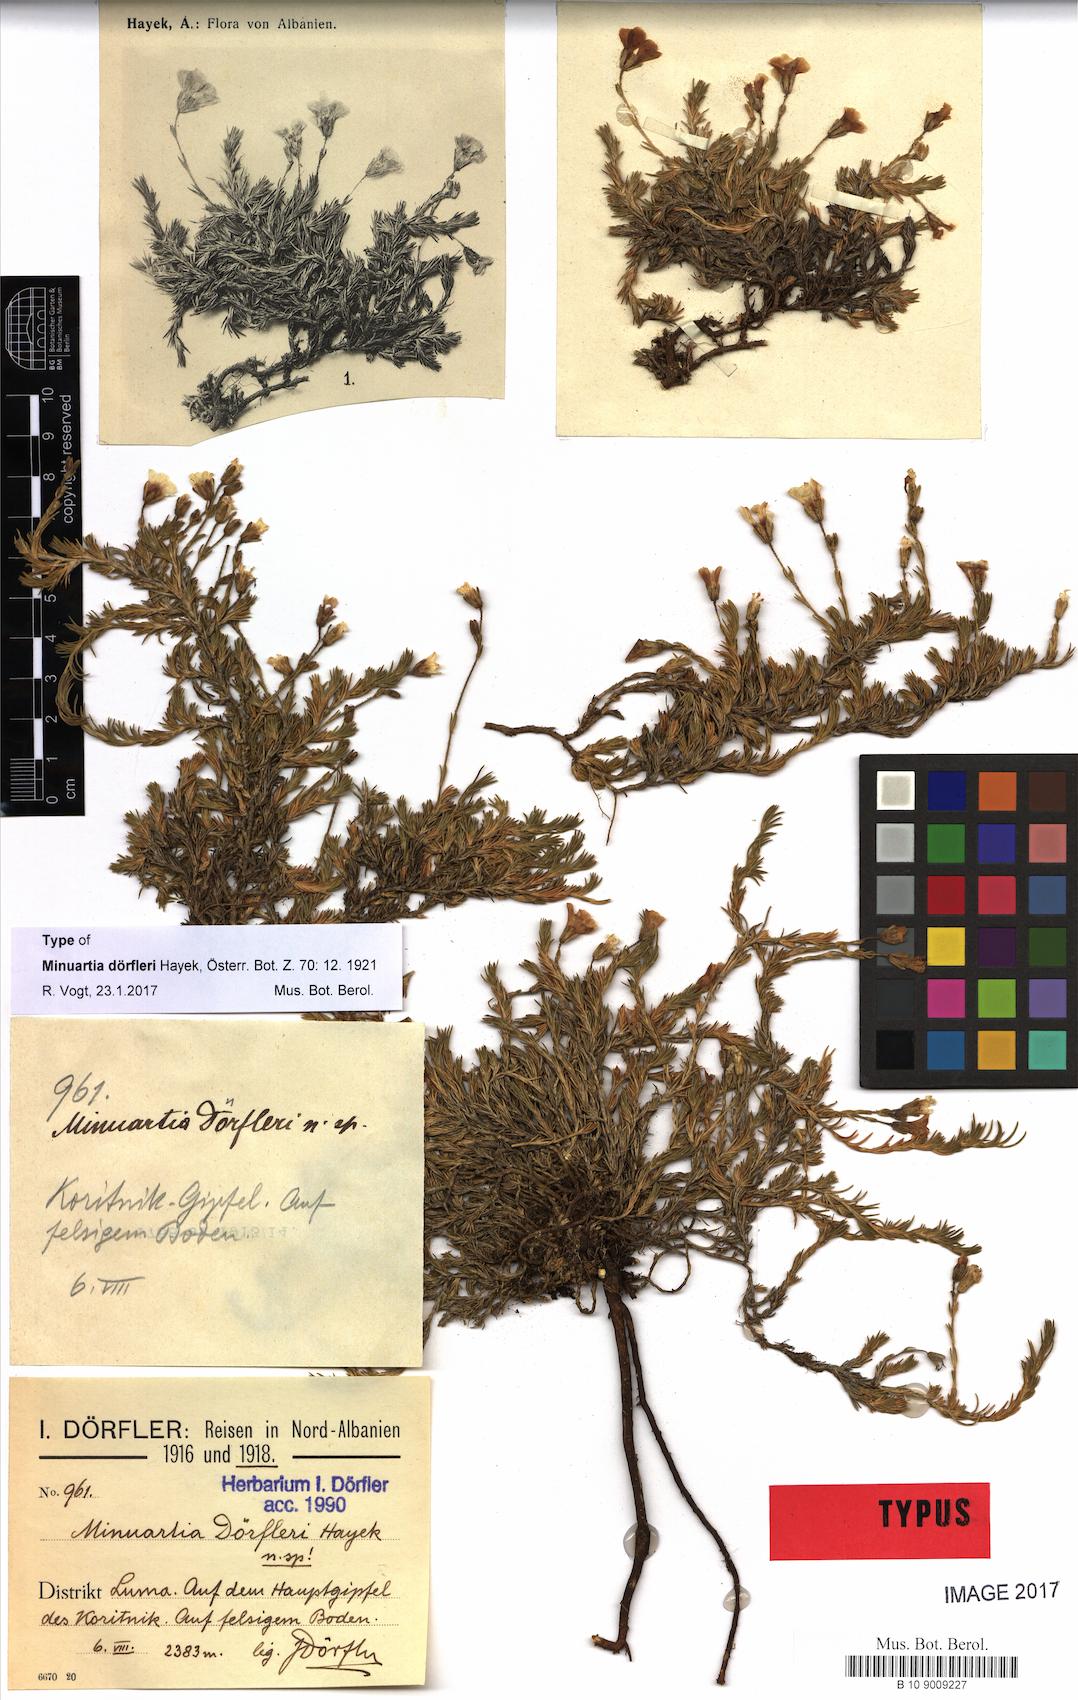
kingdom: Plantae
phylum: Tracheophyta
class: Magnoliopsida
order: Caryophyllales
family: Caryophyllaceae
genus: Cherleria
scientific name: Cherleria doerfleri
